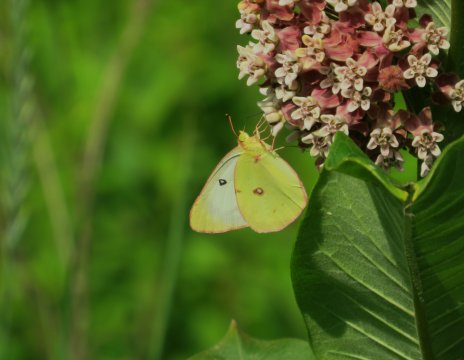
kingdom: Animalia
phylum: Arthropoda
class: Insecta
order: Lepidoptera
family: Pieridae
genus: Colias
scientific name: Colias philodice
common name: Clouded Sulphur
